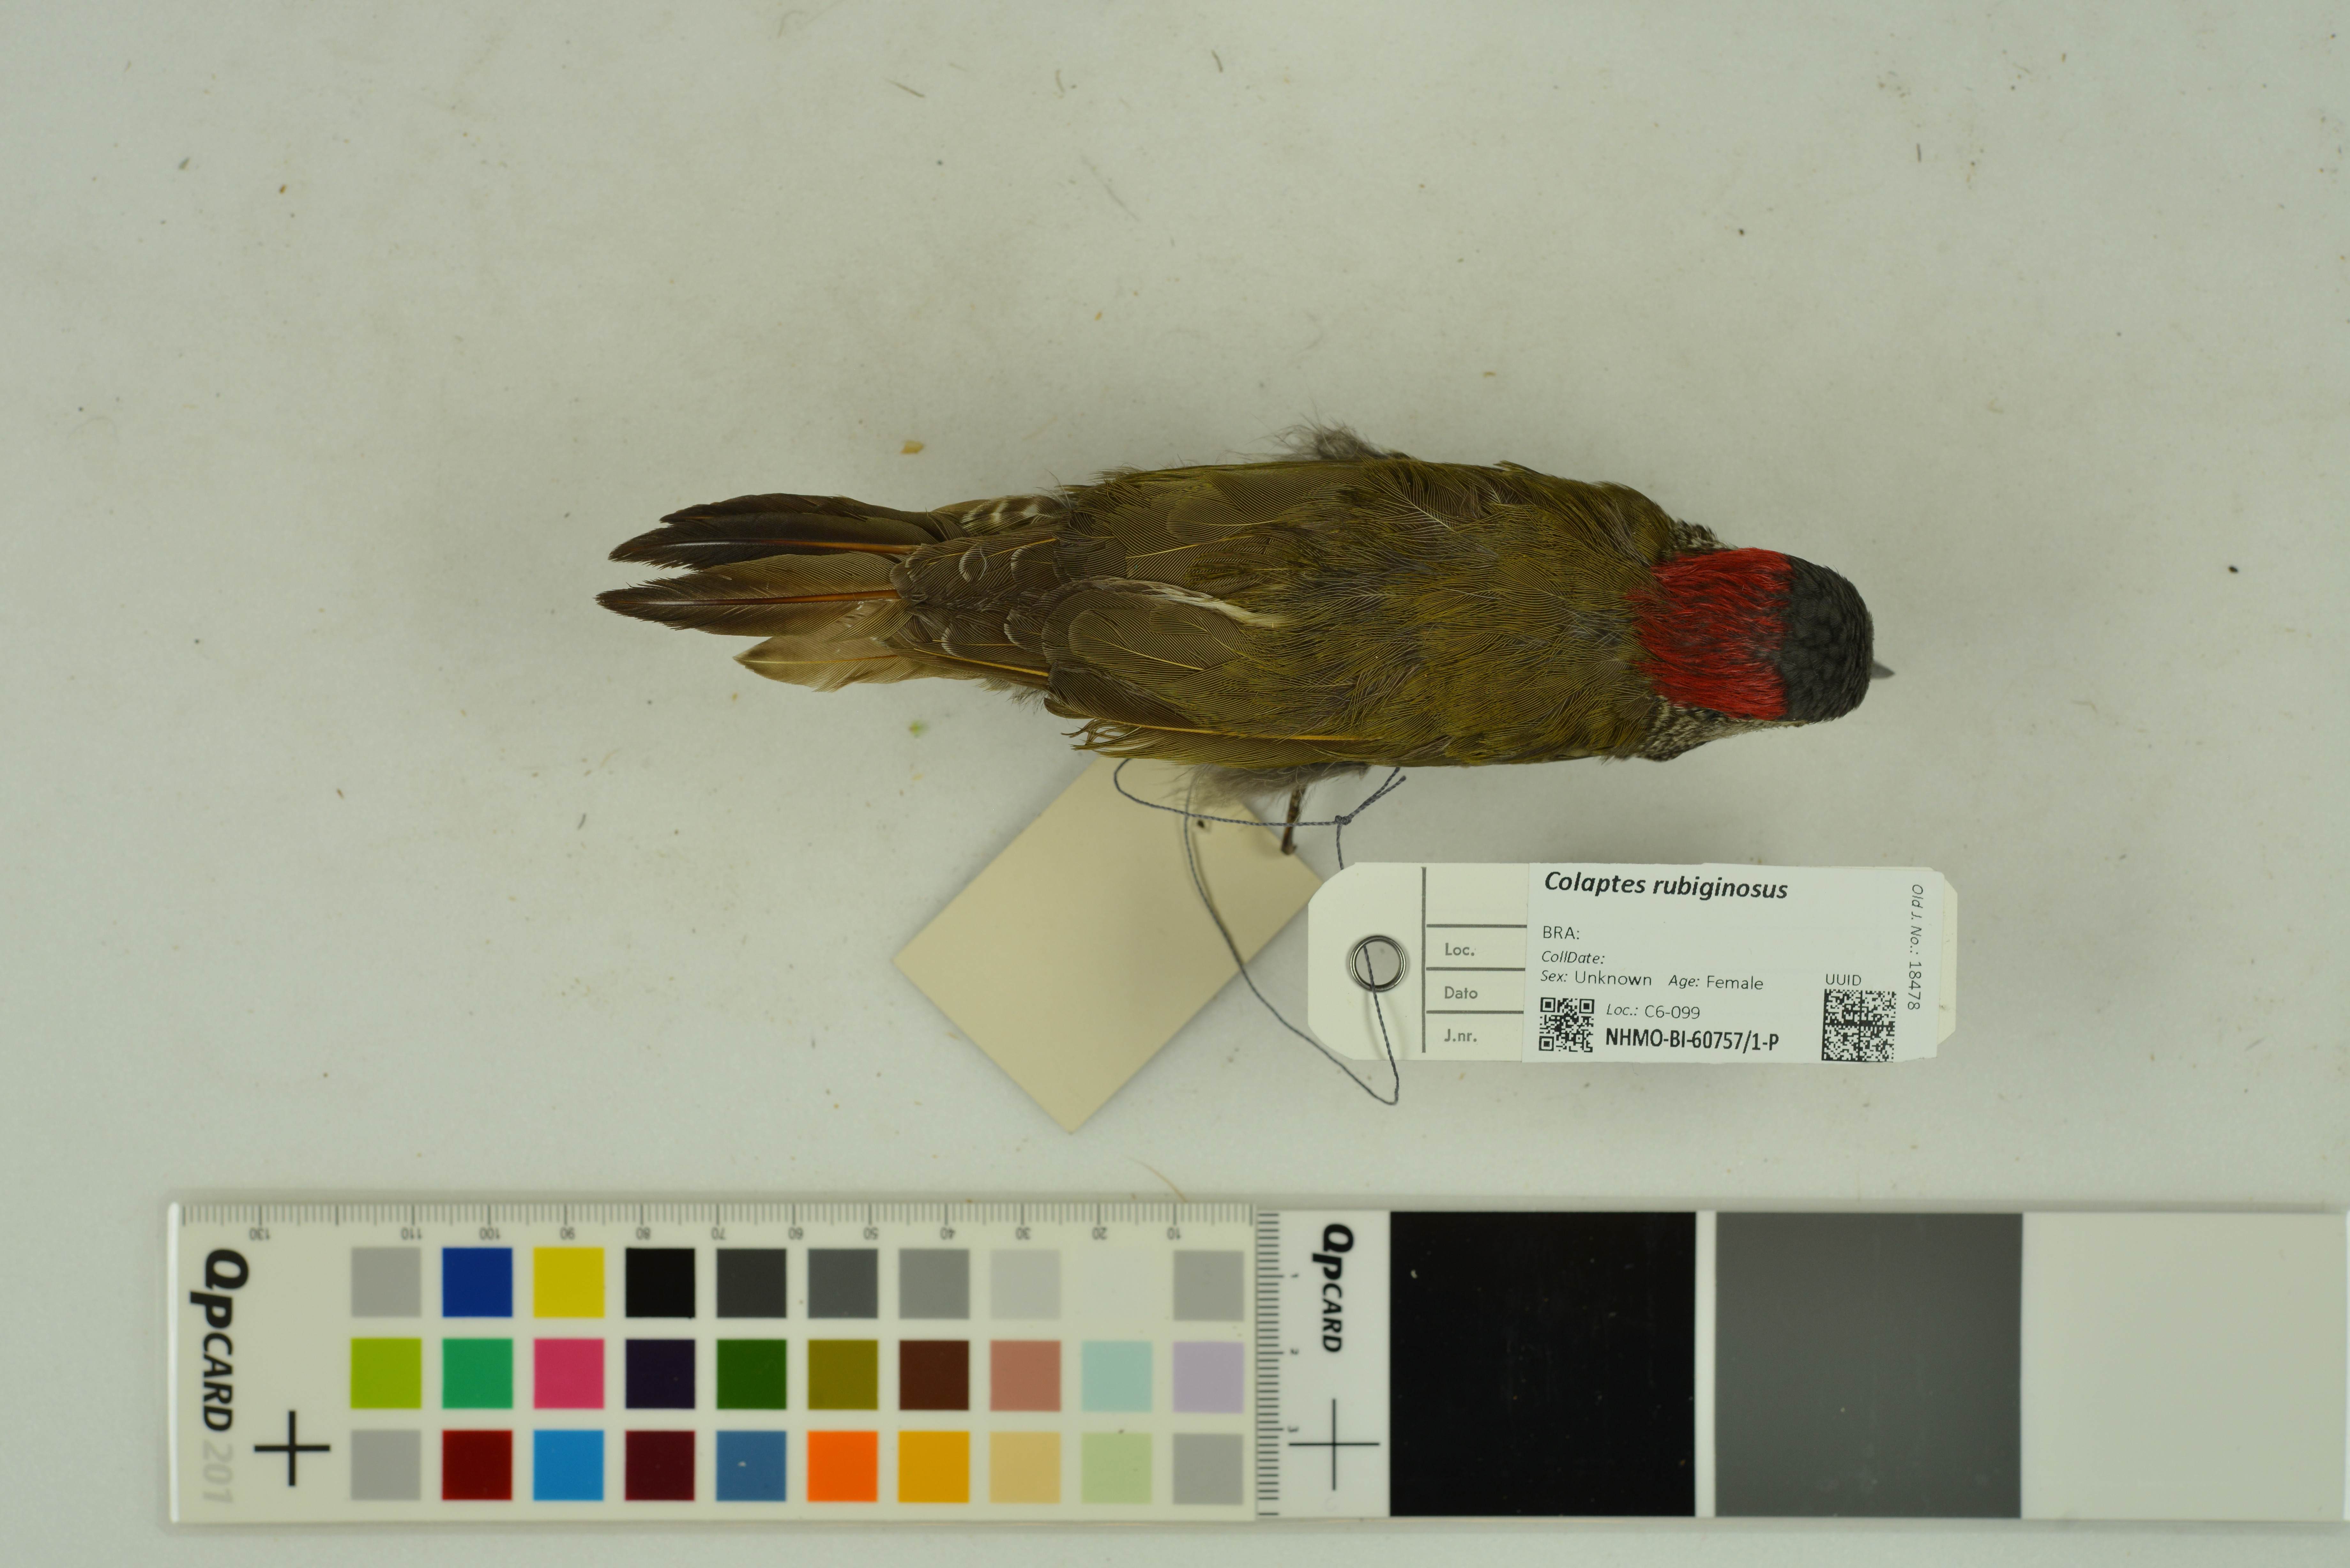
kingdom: Animalia
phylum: Chordata
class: Aves
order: Piciformes
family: Picidae
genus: Colaptes
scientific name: Colaptes rubiginosus
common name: Golden-olive woodpecker
